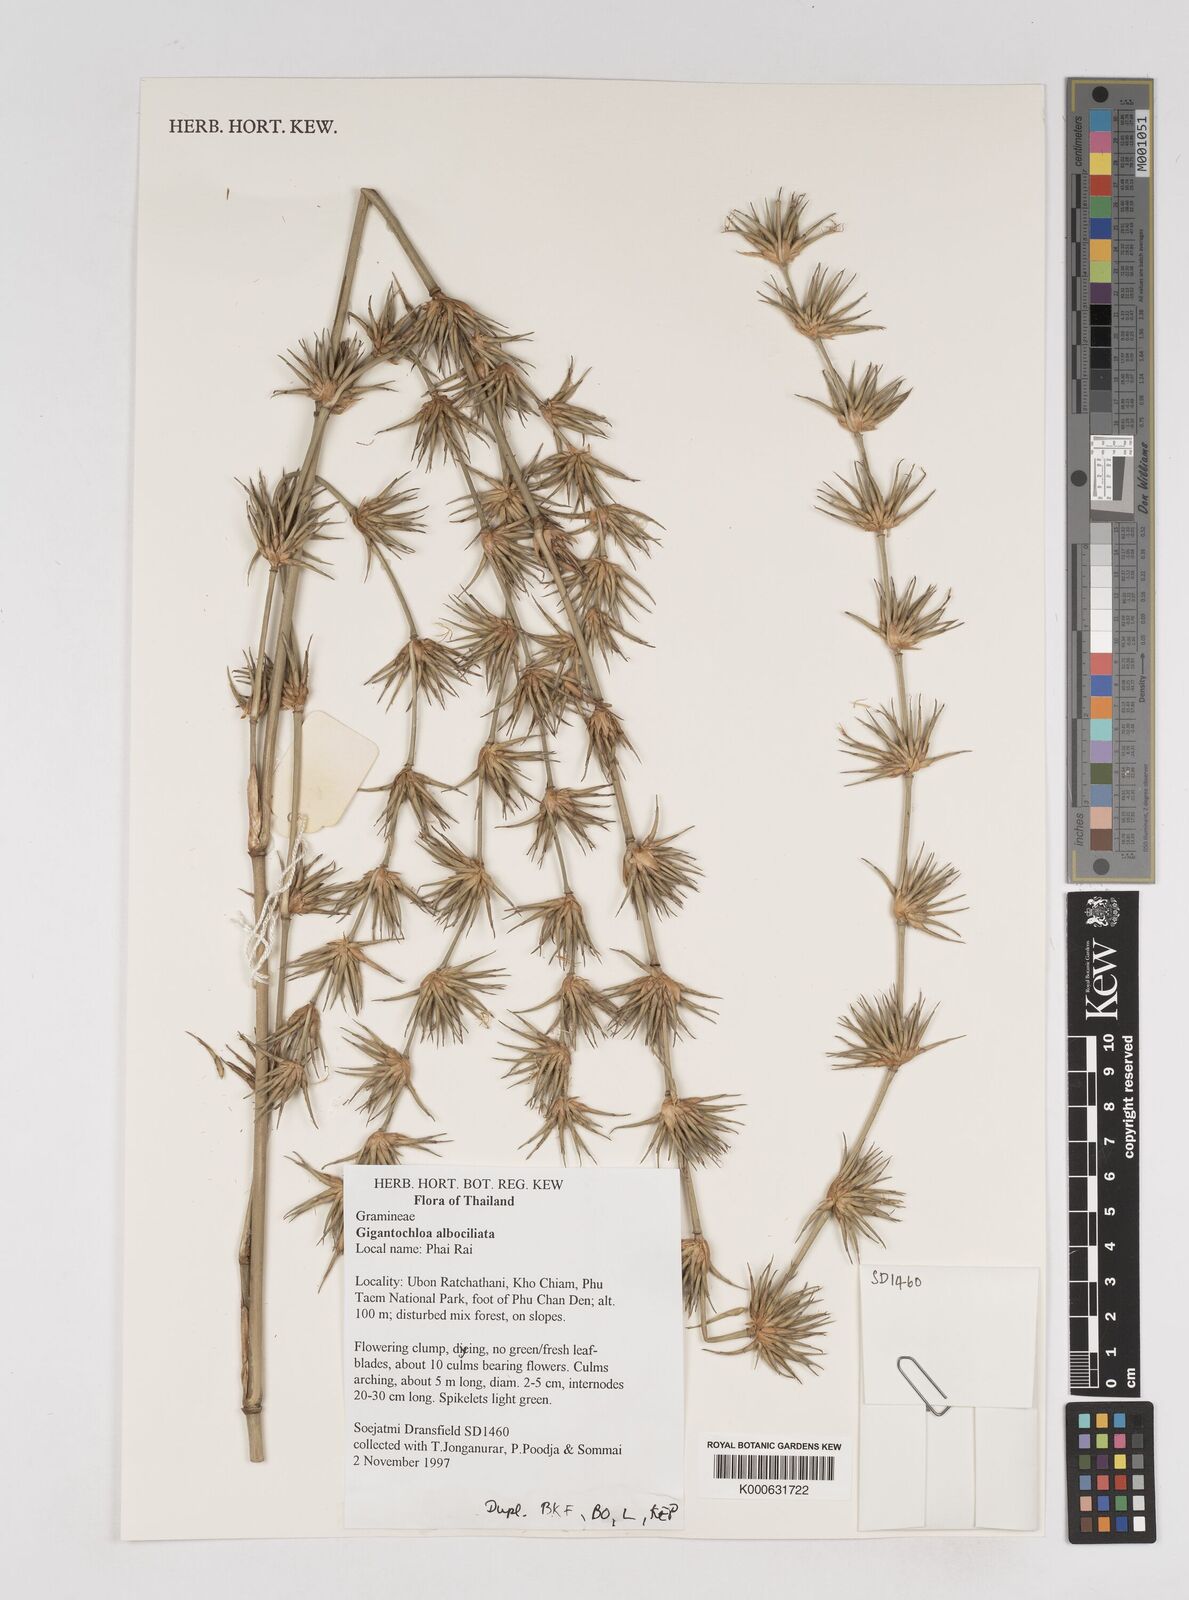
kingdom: Plantae
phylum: Tracheophyta
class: Liliopsida
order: Poales
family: Poaceae
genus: Gigantochloa
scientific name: Gigantochloa albociliata
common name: White-fringe gigantochloa
